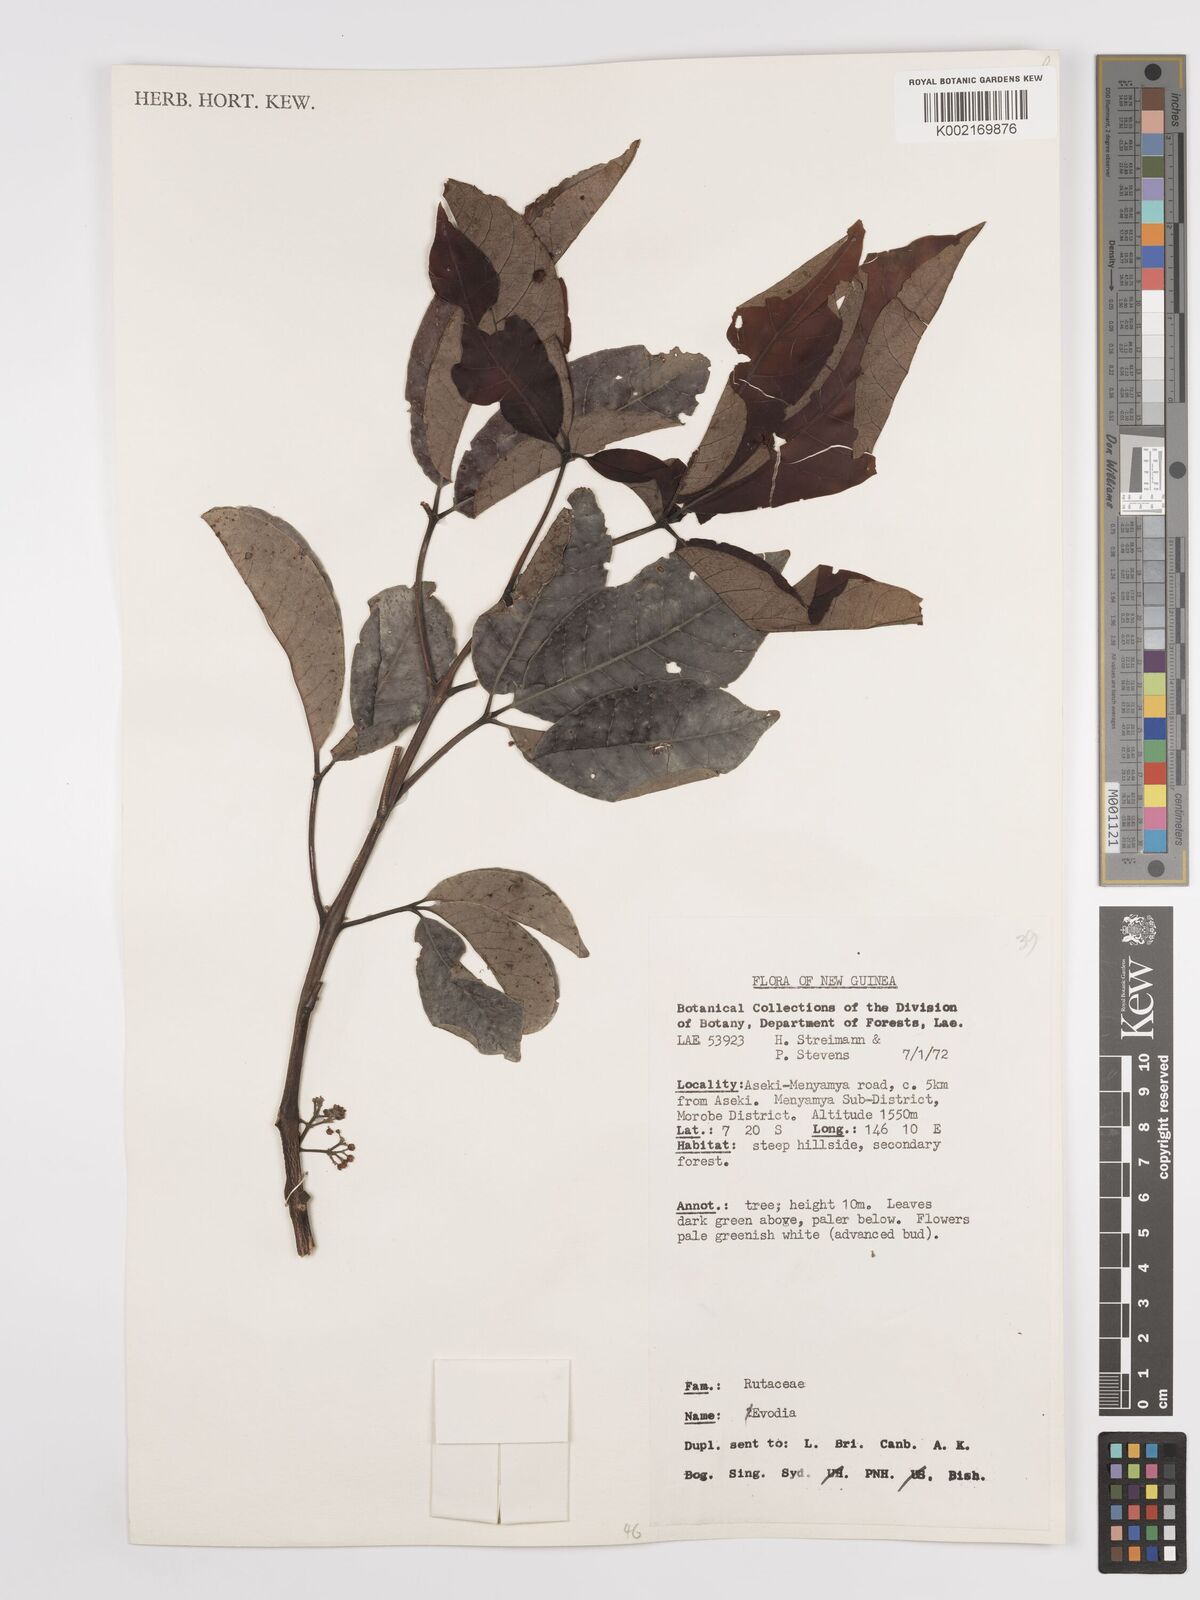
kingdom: Plantae
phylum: Tracheophyta
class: Magnoliopsida
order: Sapindales
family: Rutaceae
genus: Euodia
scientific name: Euodia
